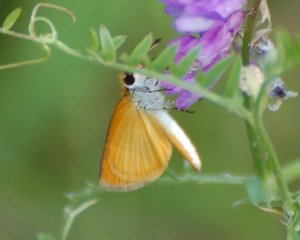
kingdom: Animalia
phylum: Arthropoda
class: Insecta
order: Lepidoptera
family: Hesperiidae
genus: Ancyloxypha
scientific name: Ancyloxypha numitor
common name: Least Skipper
